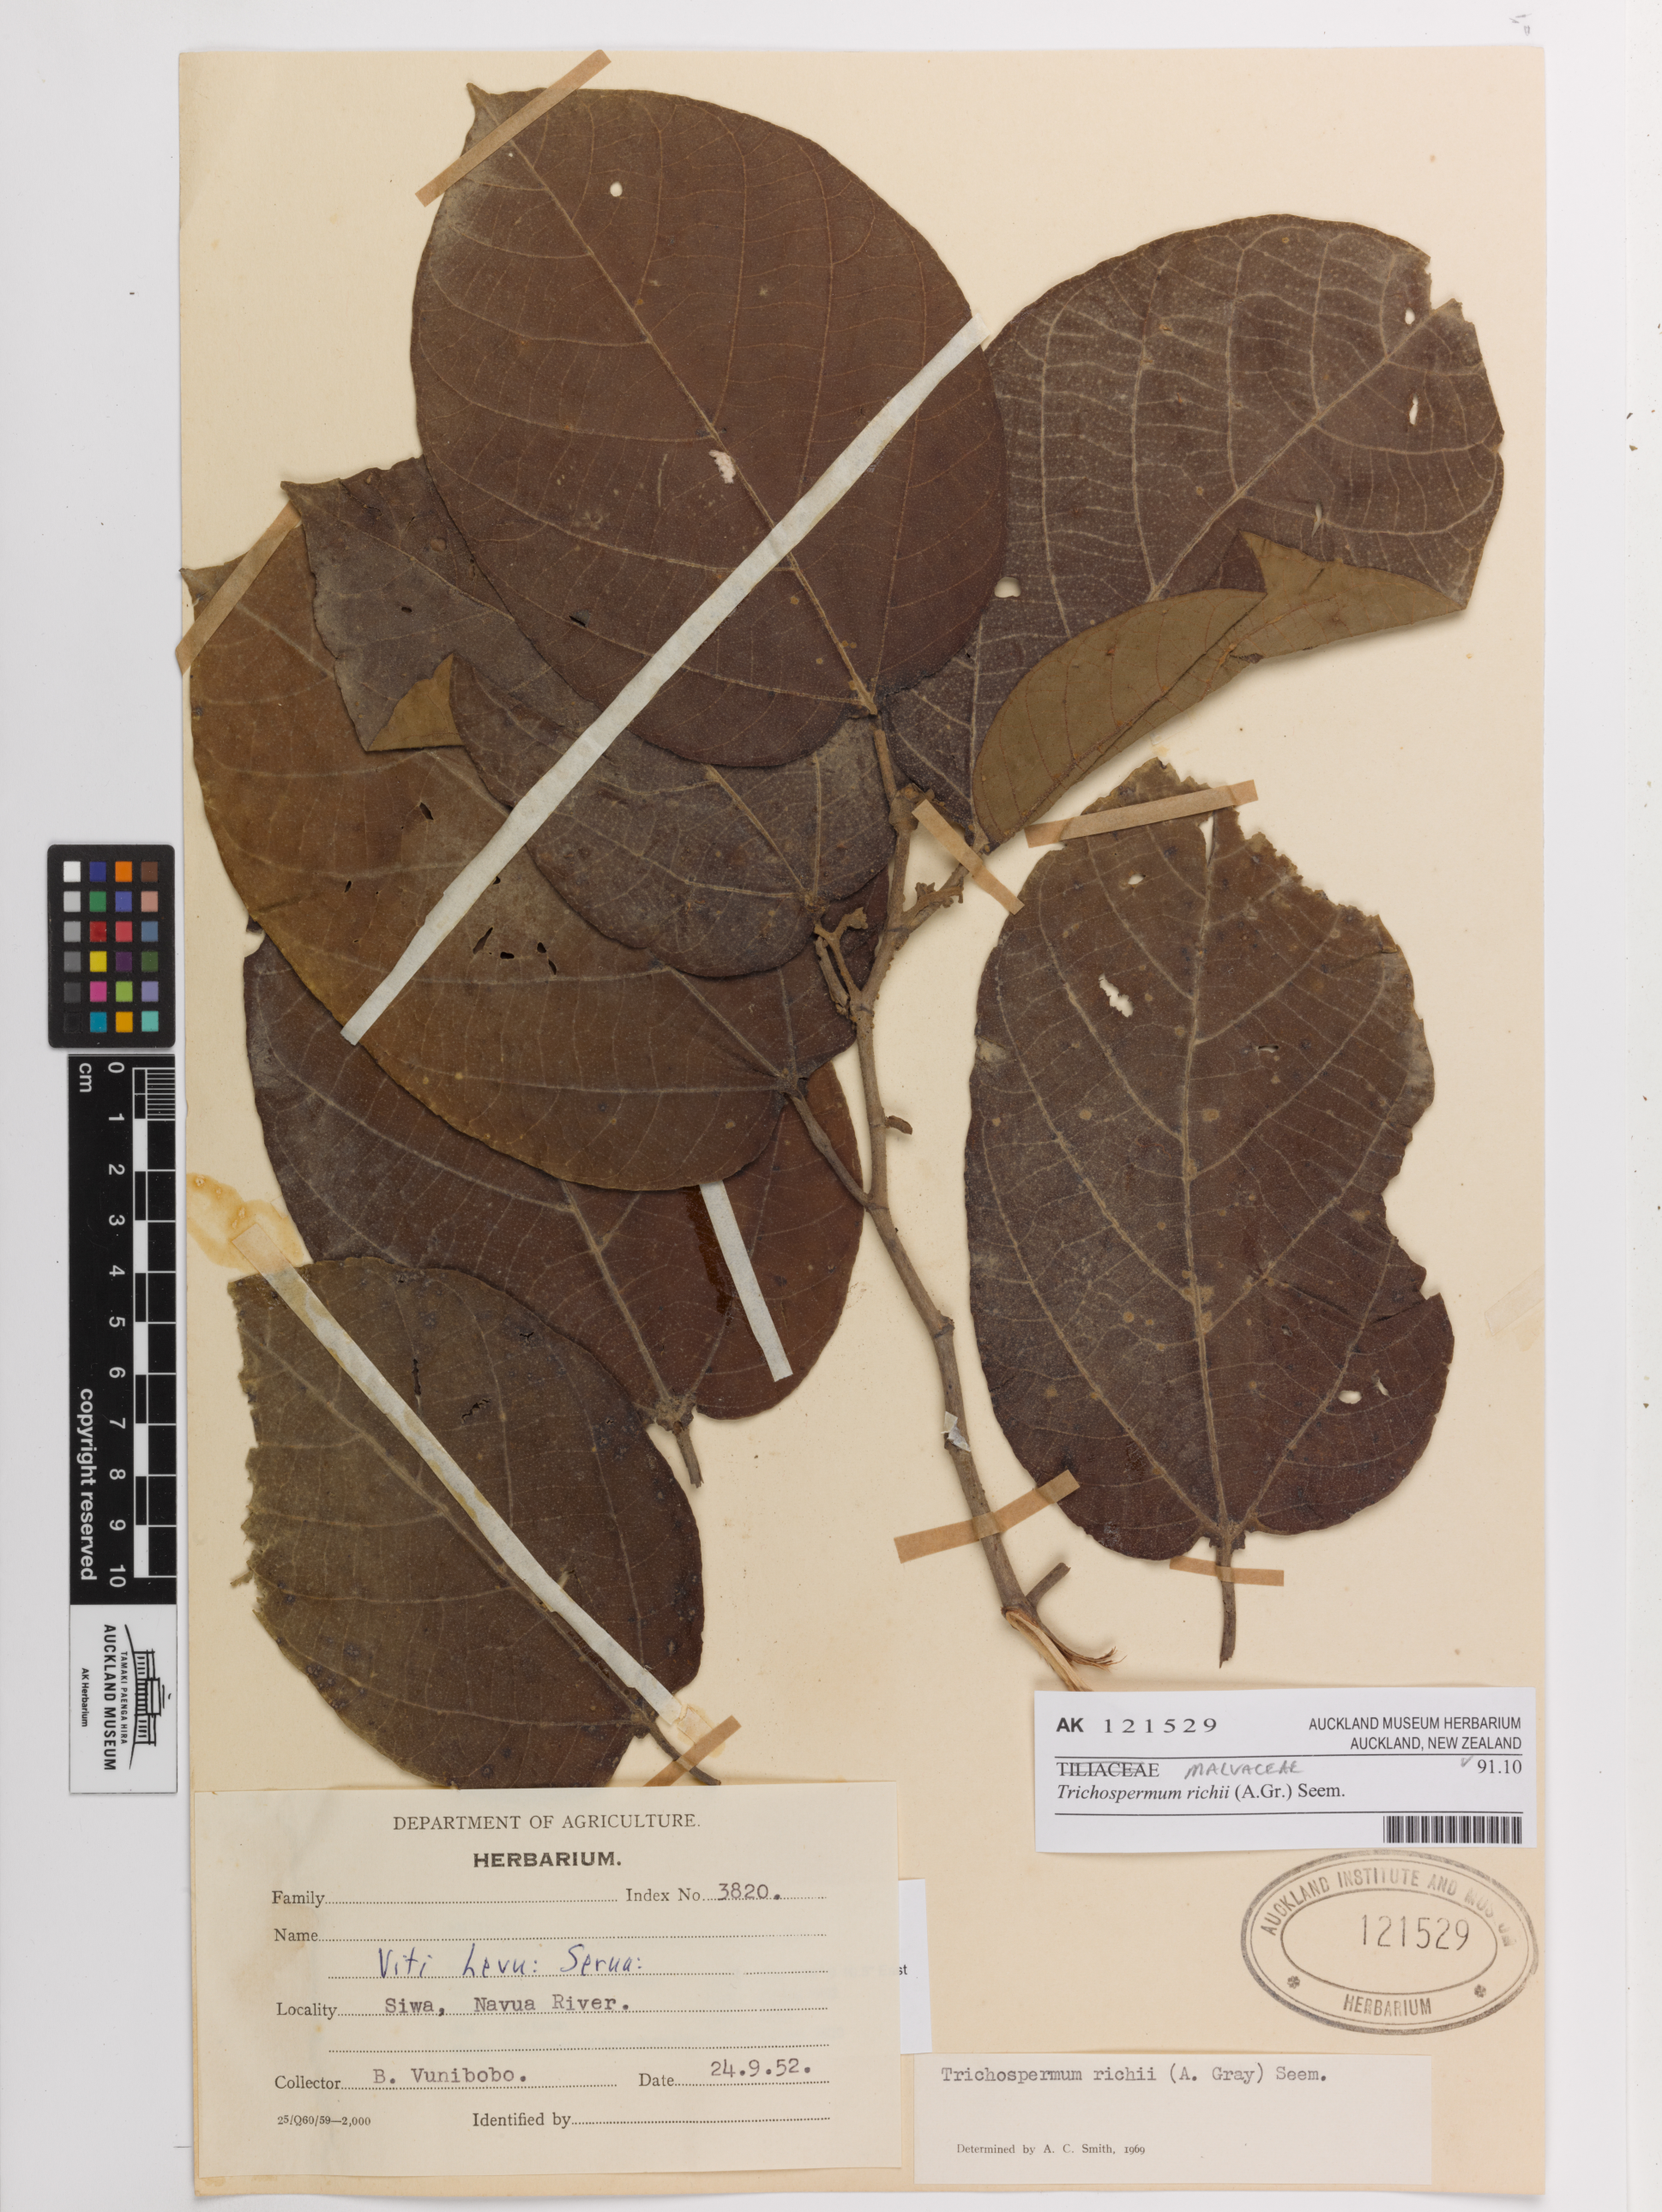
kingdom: Plantae
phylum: Tracheophyta
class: Magnoliopsida
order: Malvales
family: Malvaceae
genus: Trichospermum
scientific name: Trichospermum richii
